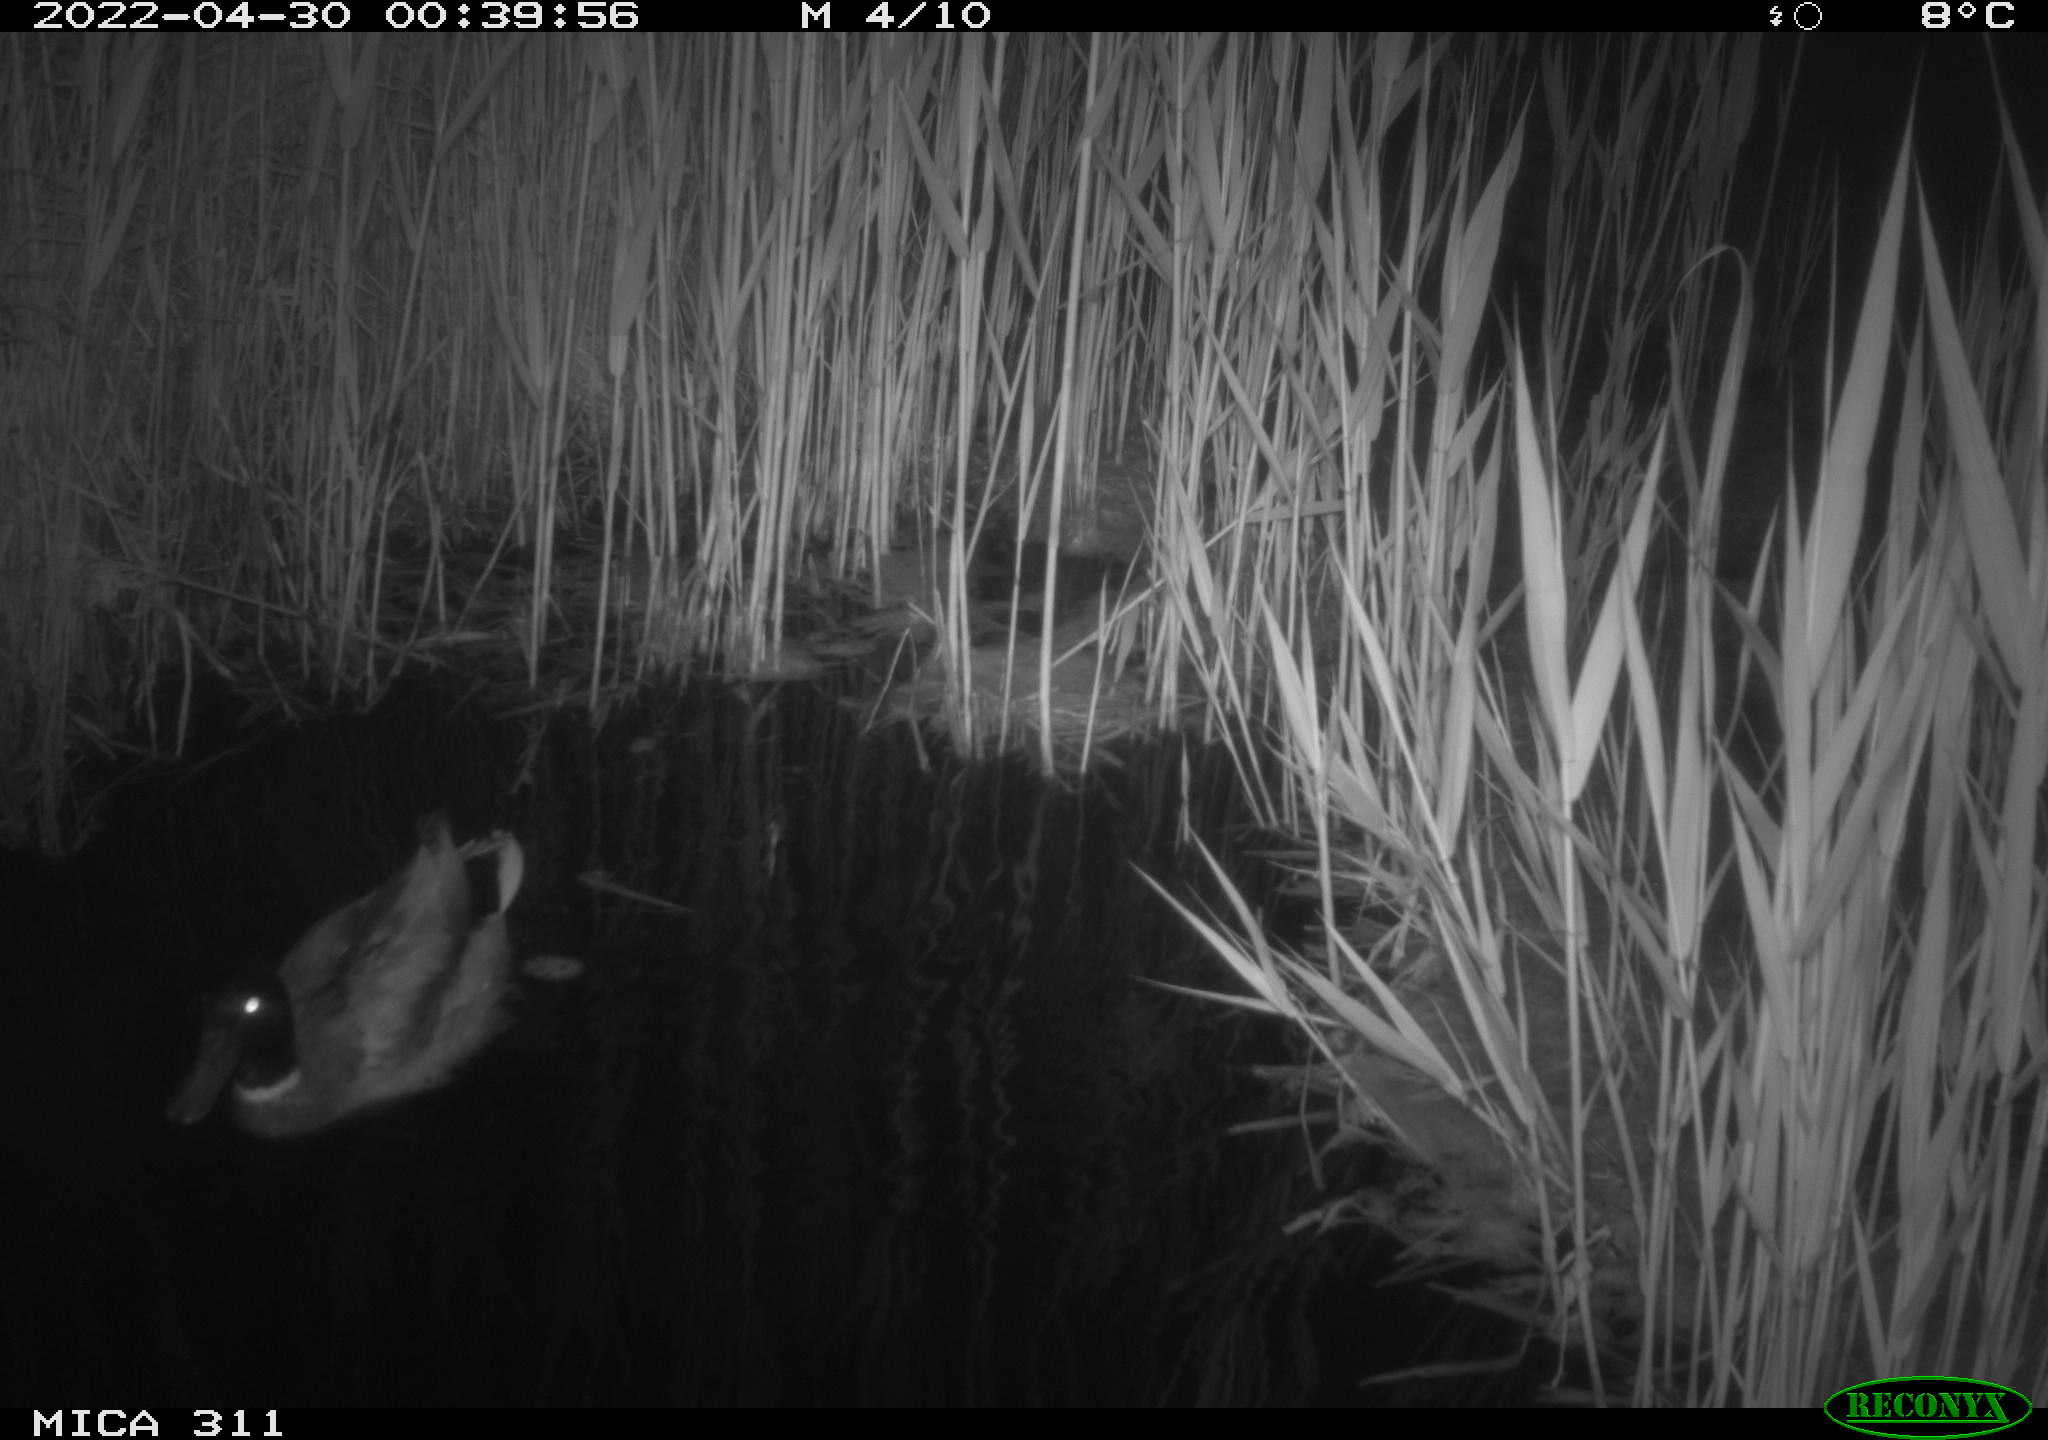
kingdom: Animalia
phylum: Chordata
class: Aves
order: Anseriformes
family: Anatidae
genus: Anas
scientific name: Anas platyrhynchos
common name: Mallard
